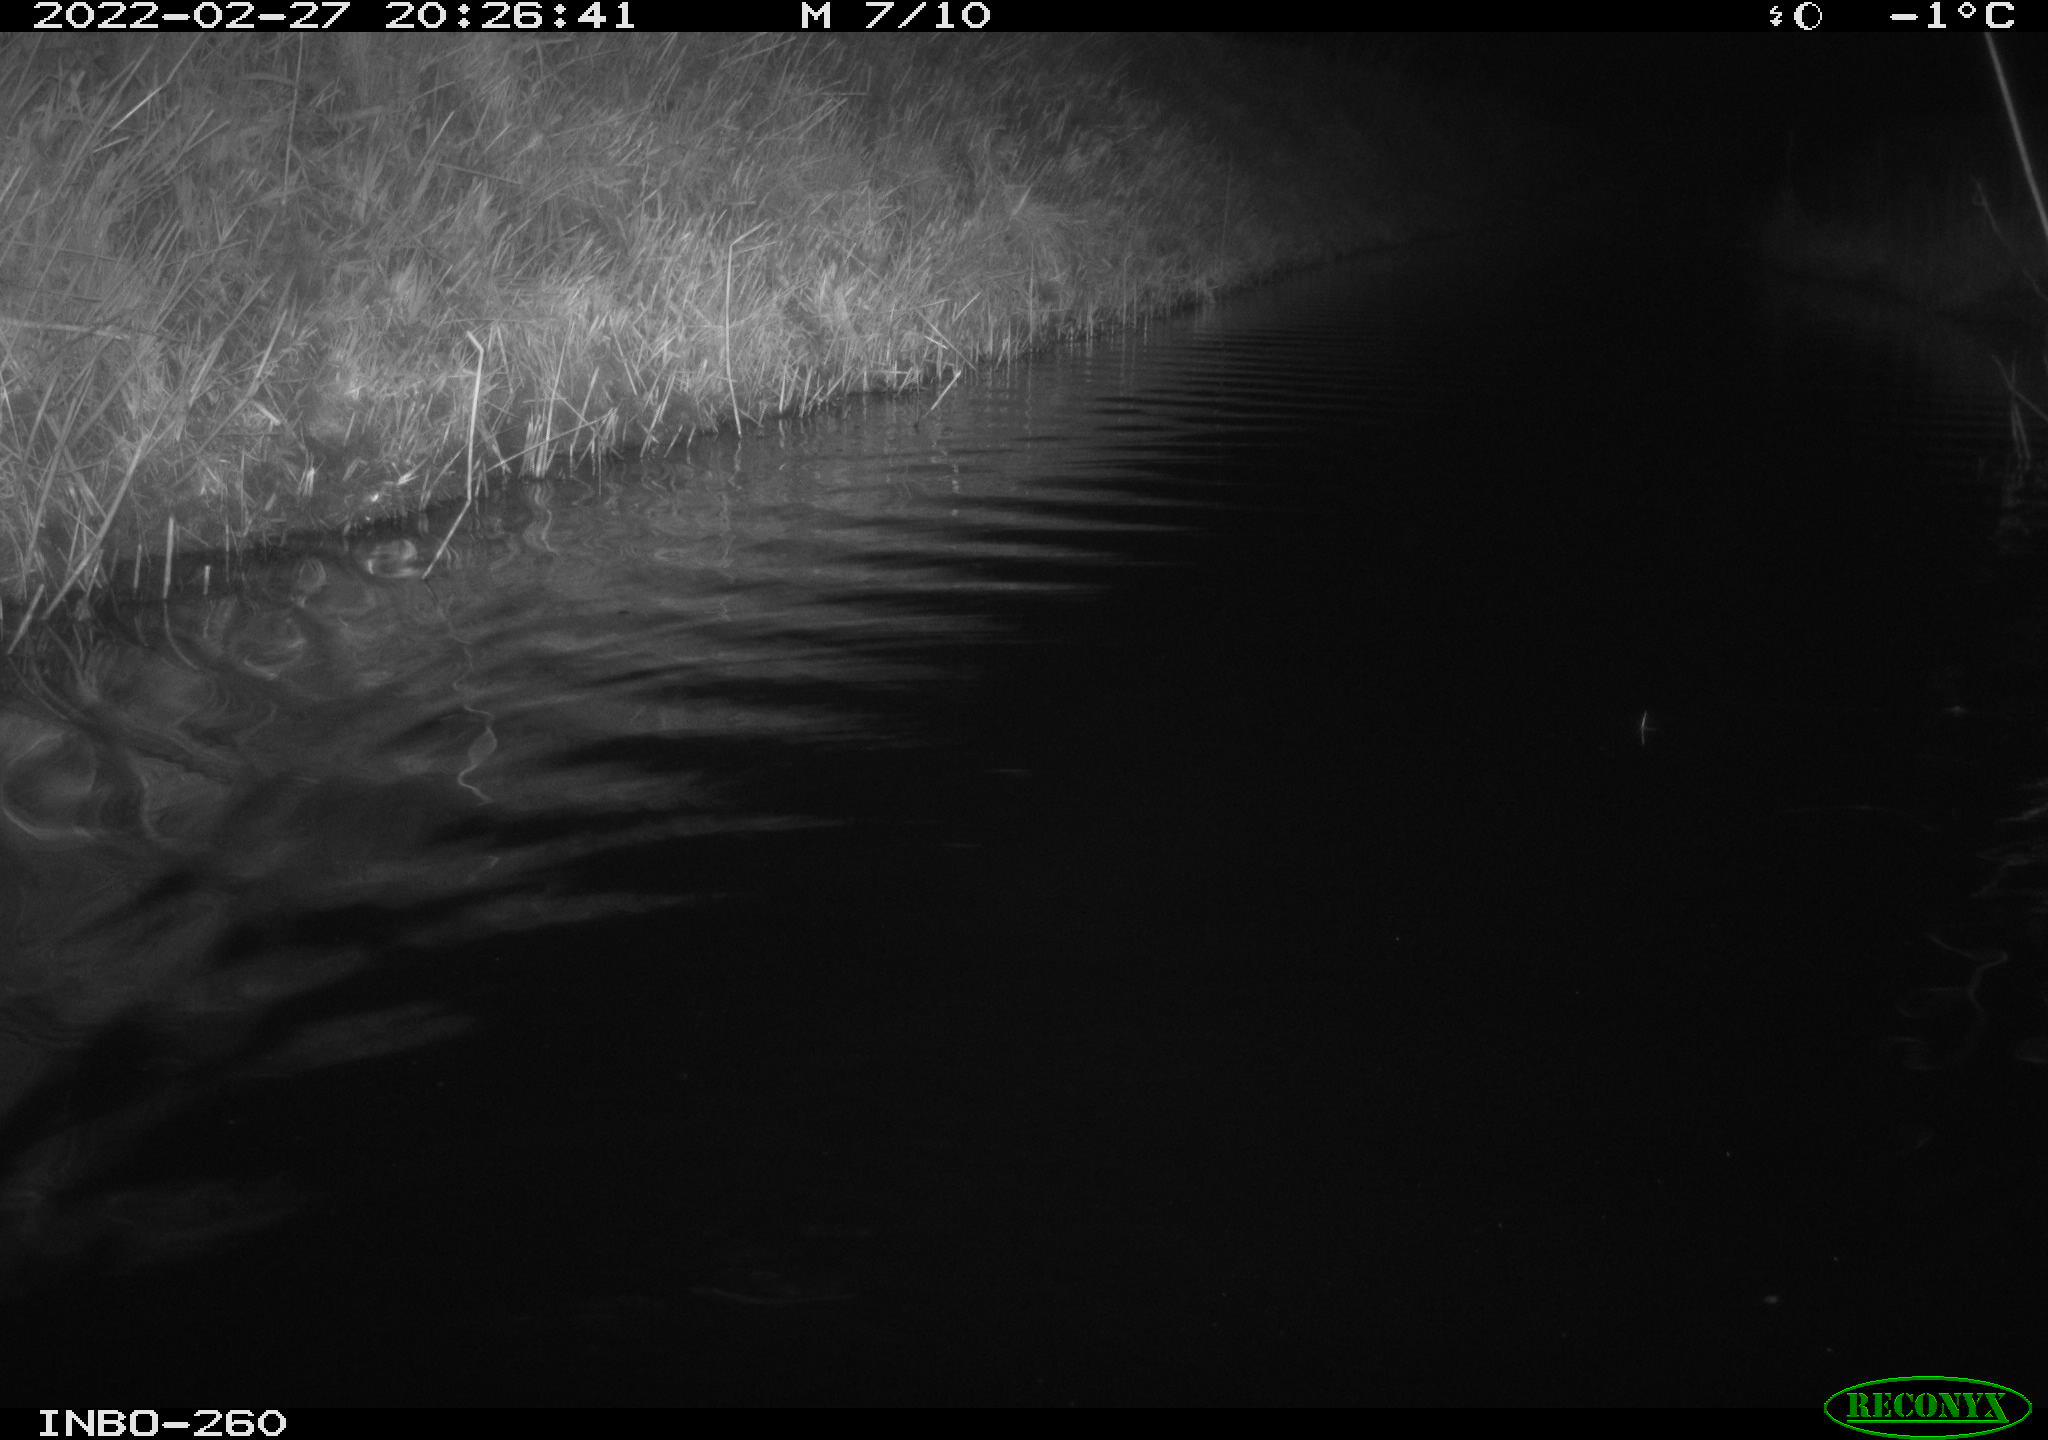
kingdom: Animalia
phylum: Chordata
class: Mammalia
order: Rodentia
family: Cricetidae
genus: Ondatra
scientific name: Ondatra zibethicus
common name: Muskrat
